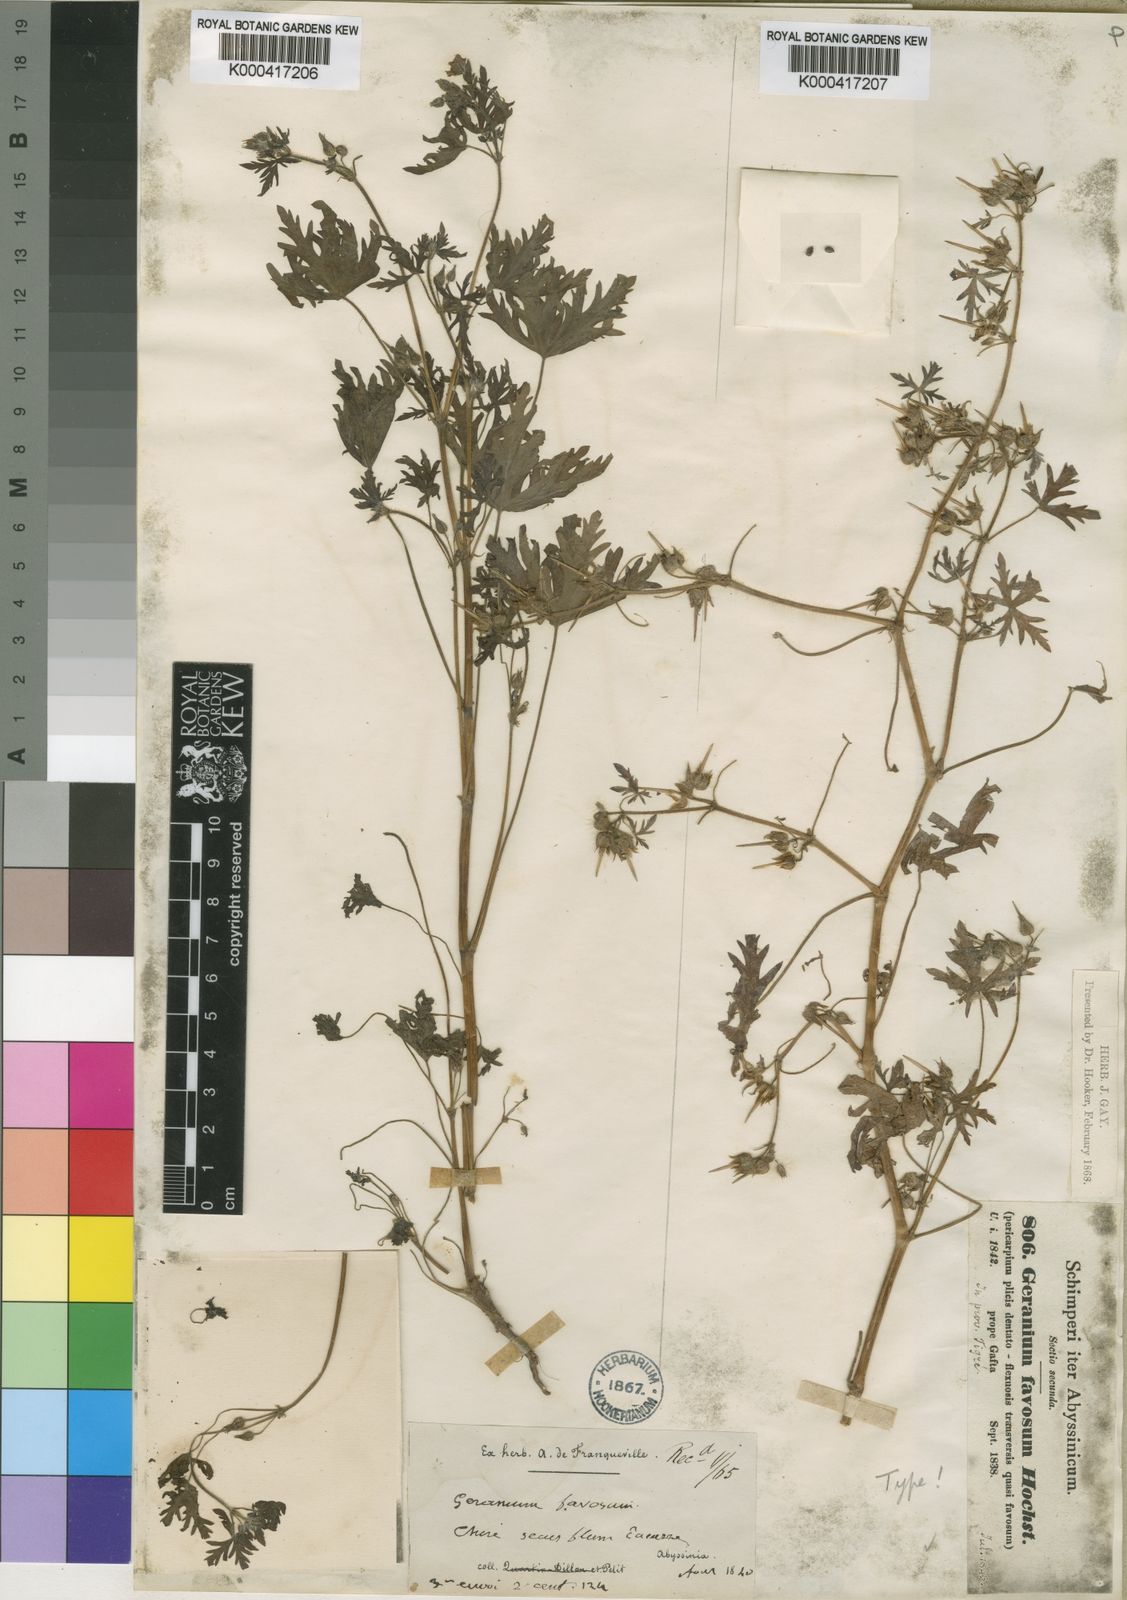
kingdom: Plantae
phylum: Tracheophyta
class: Magnoliopsida
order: Geraniales
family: Geraniaceae
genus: Geranium
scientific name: Geranium favosum
